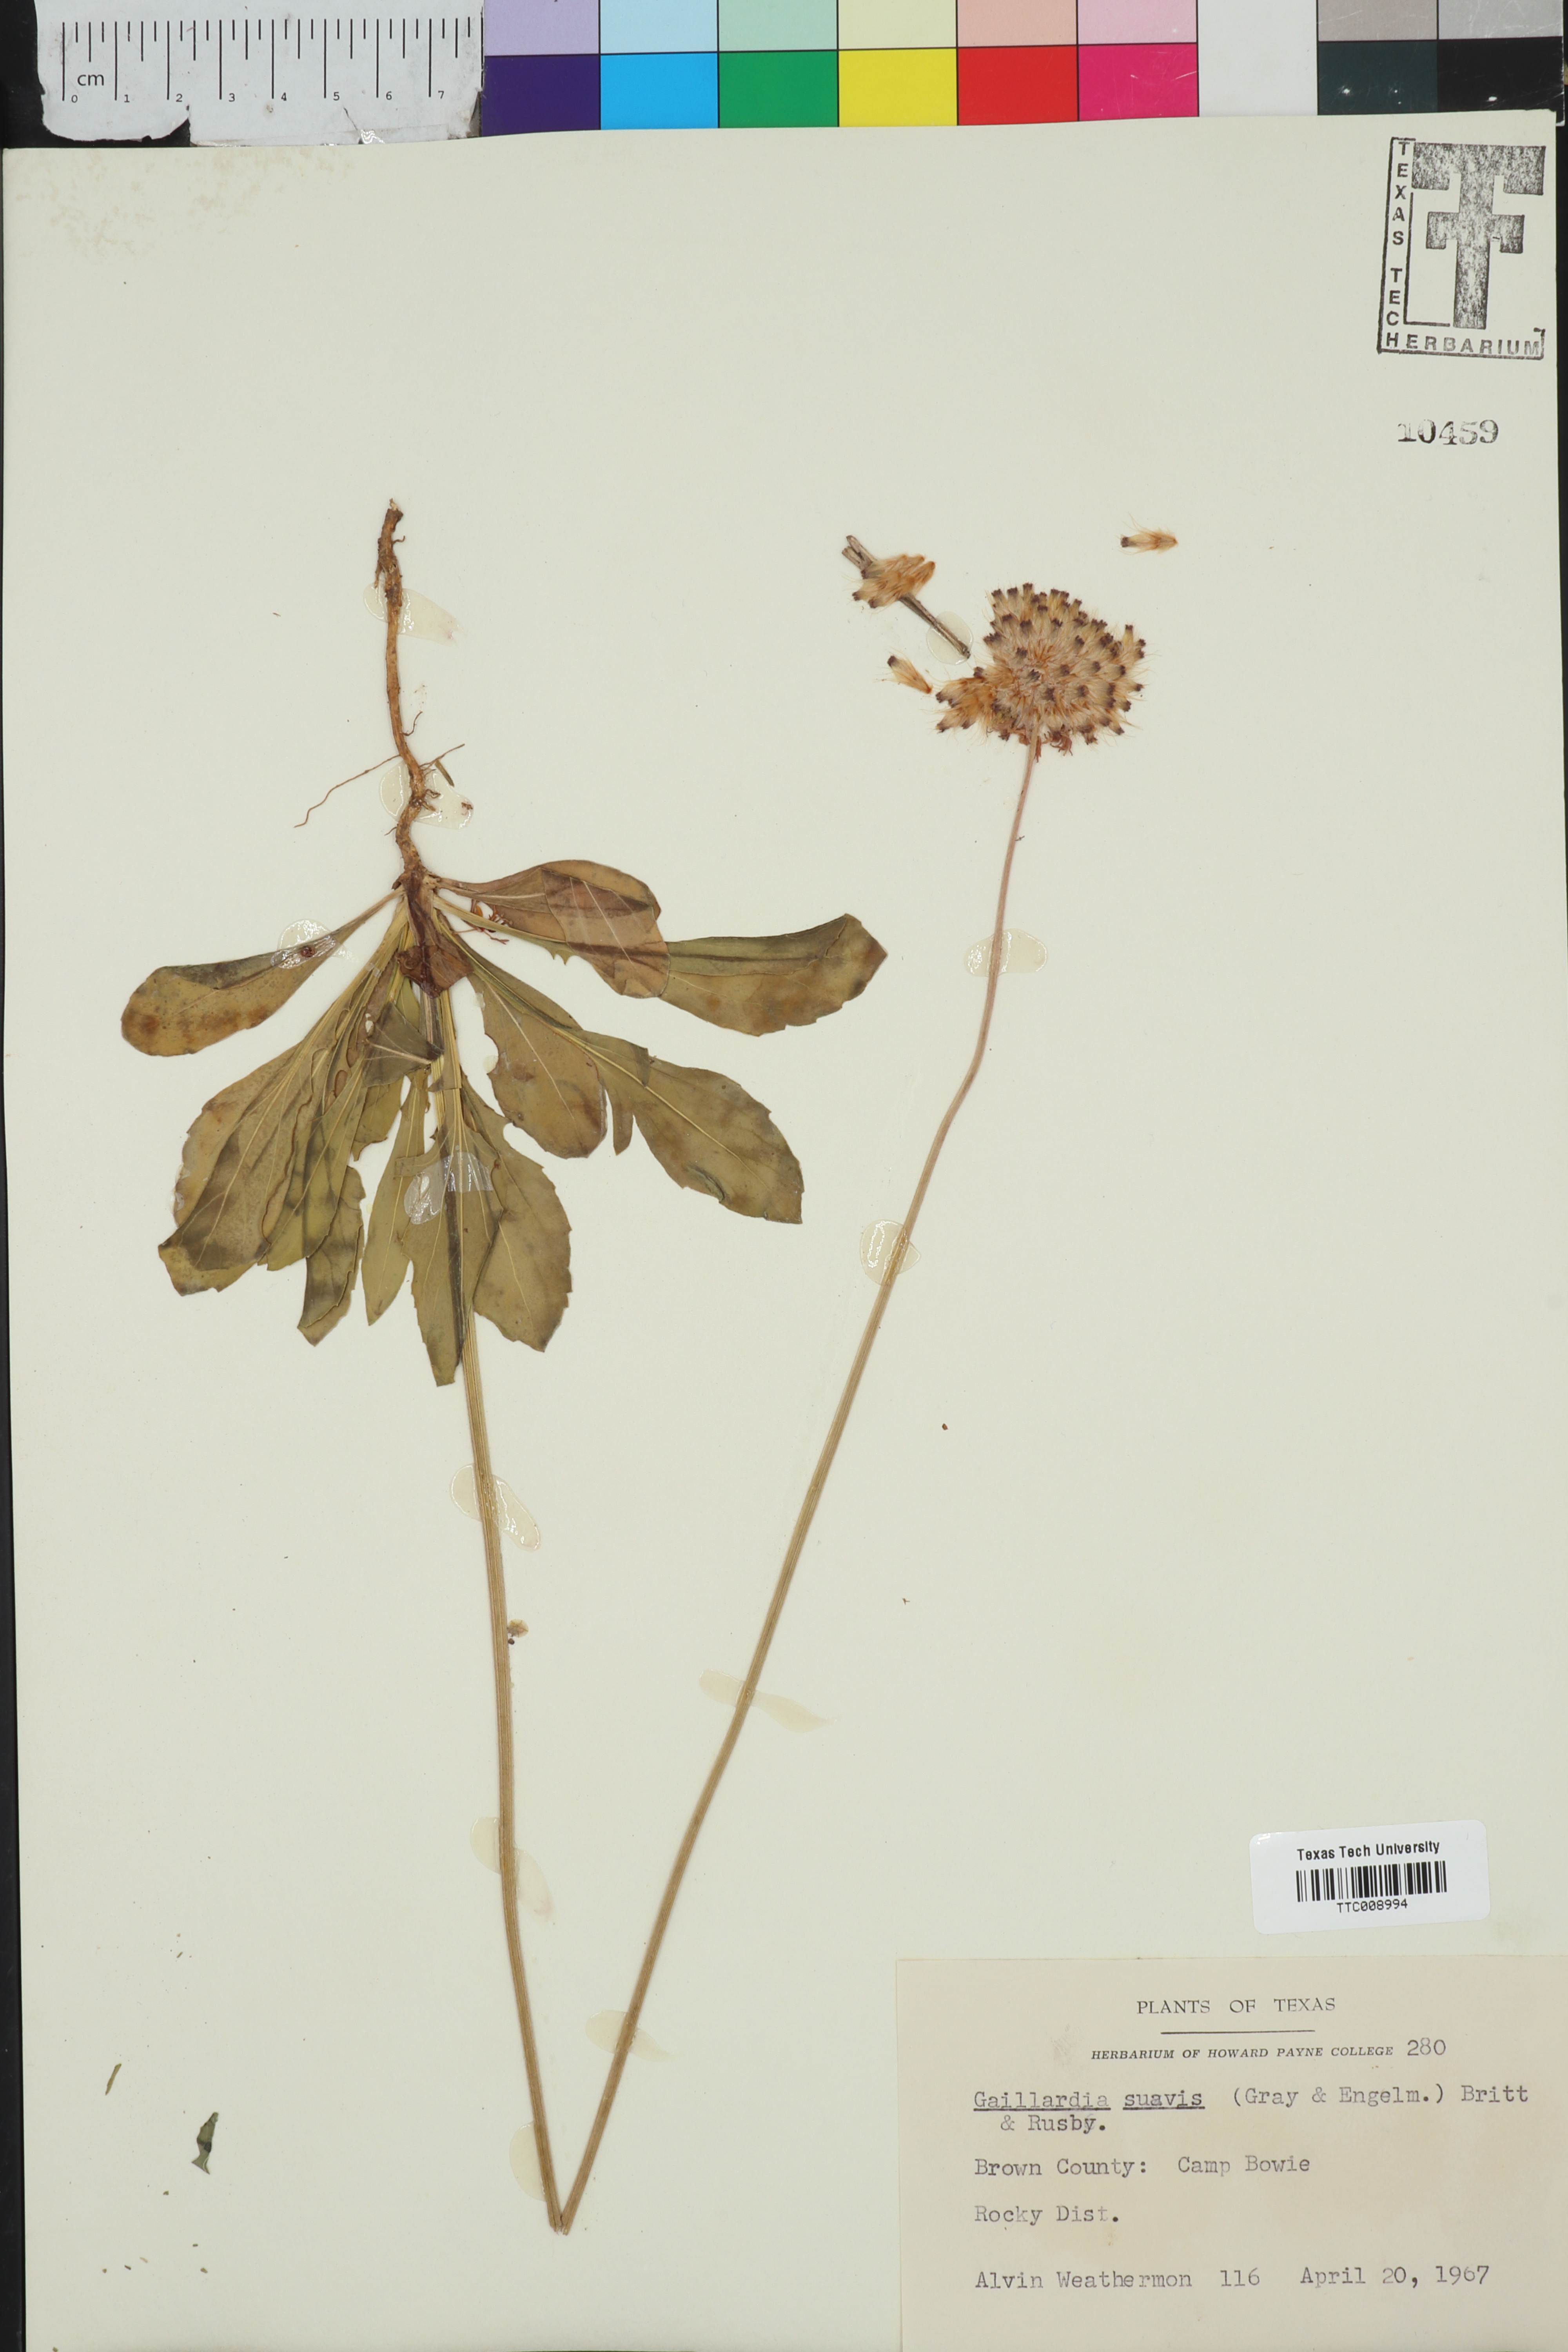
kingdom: Plantae
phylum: Tracheophyta
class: Magnoliopsida
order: Asterales
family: Asteraceae
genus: Gaillardia
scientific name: Gaillardia suavis
